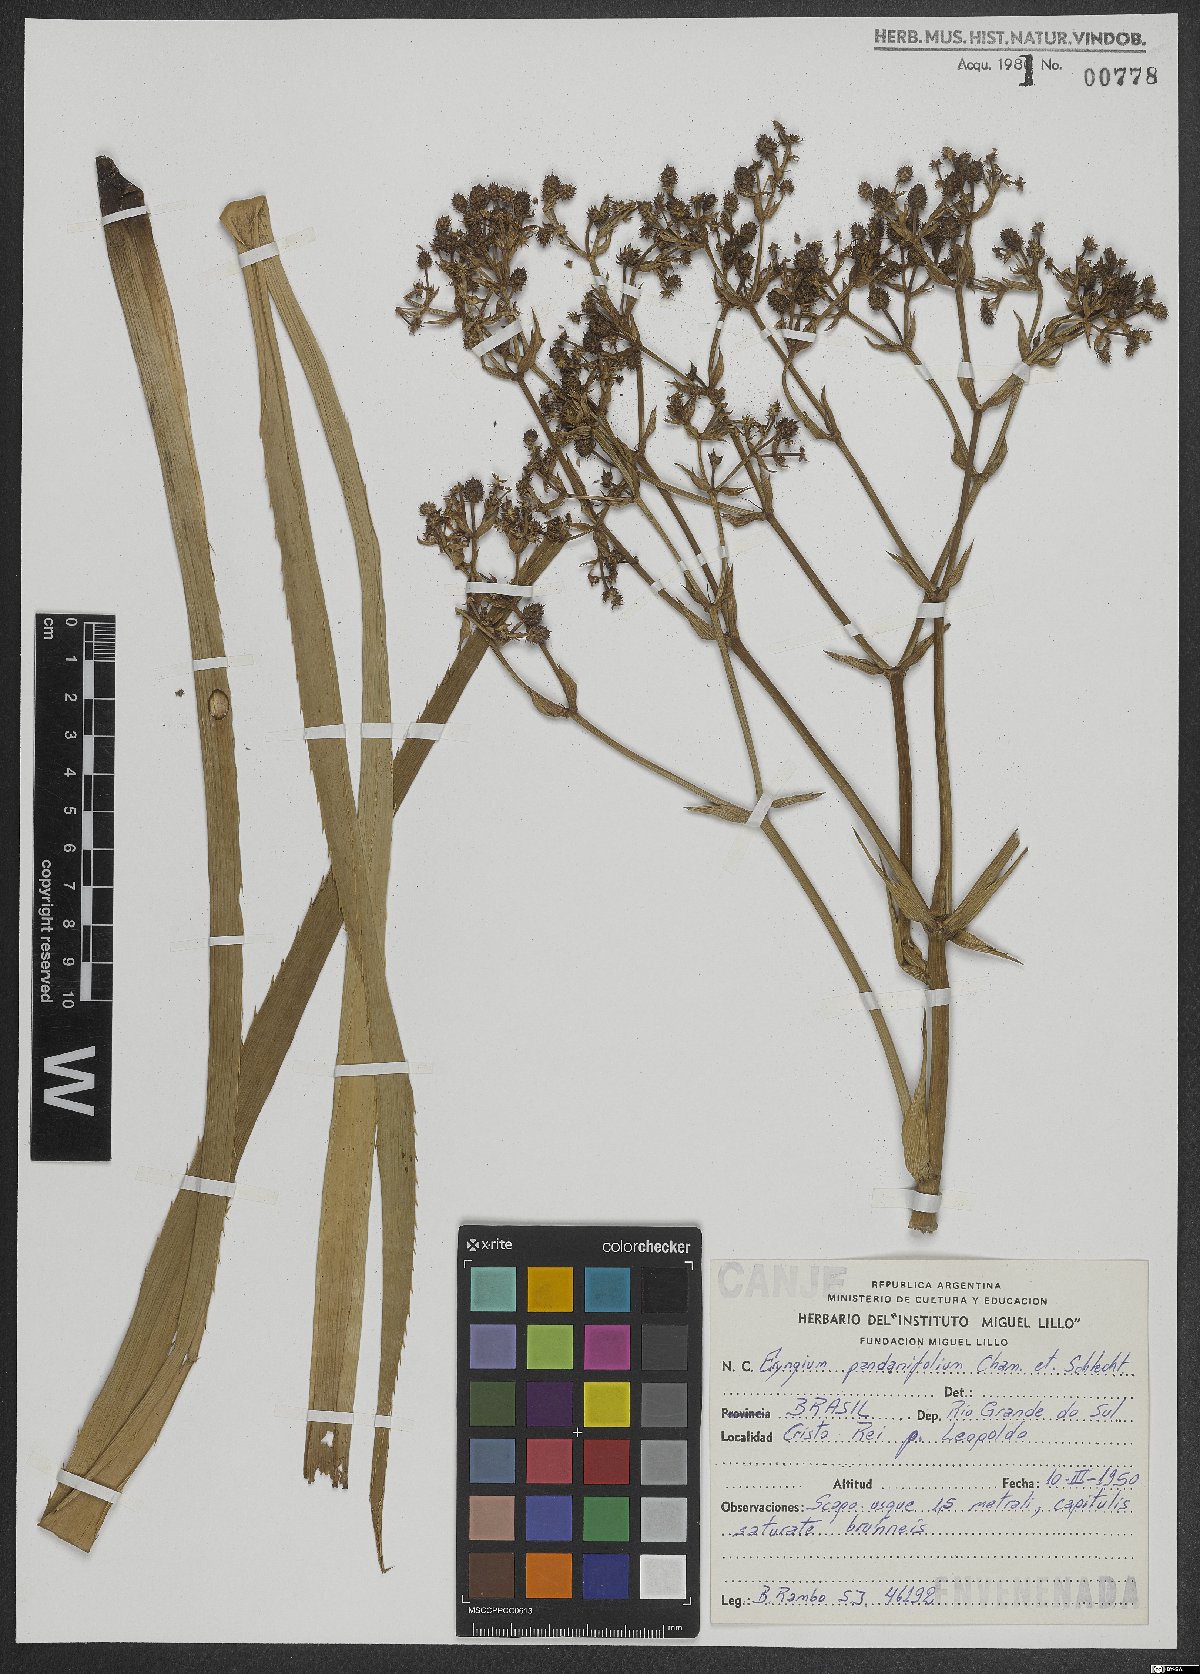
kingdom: Plantae
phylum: Tracheophyta
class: Magnoliopsida
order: Apiales
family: Apiaceae
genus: Eryngium
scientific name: Eryngium pandanifolium
